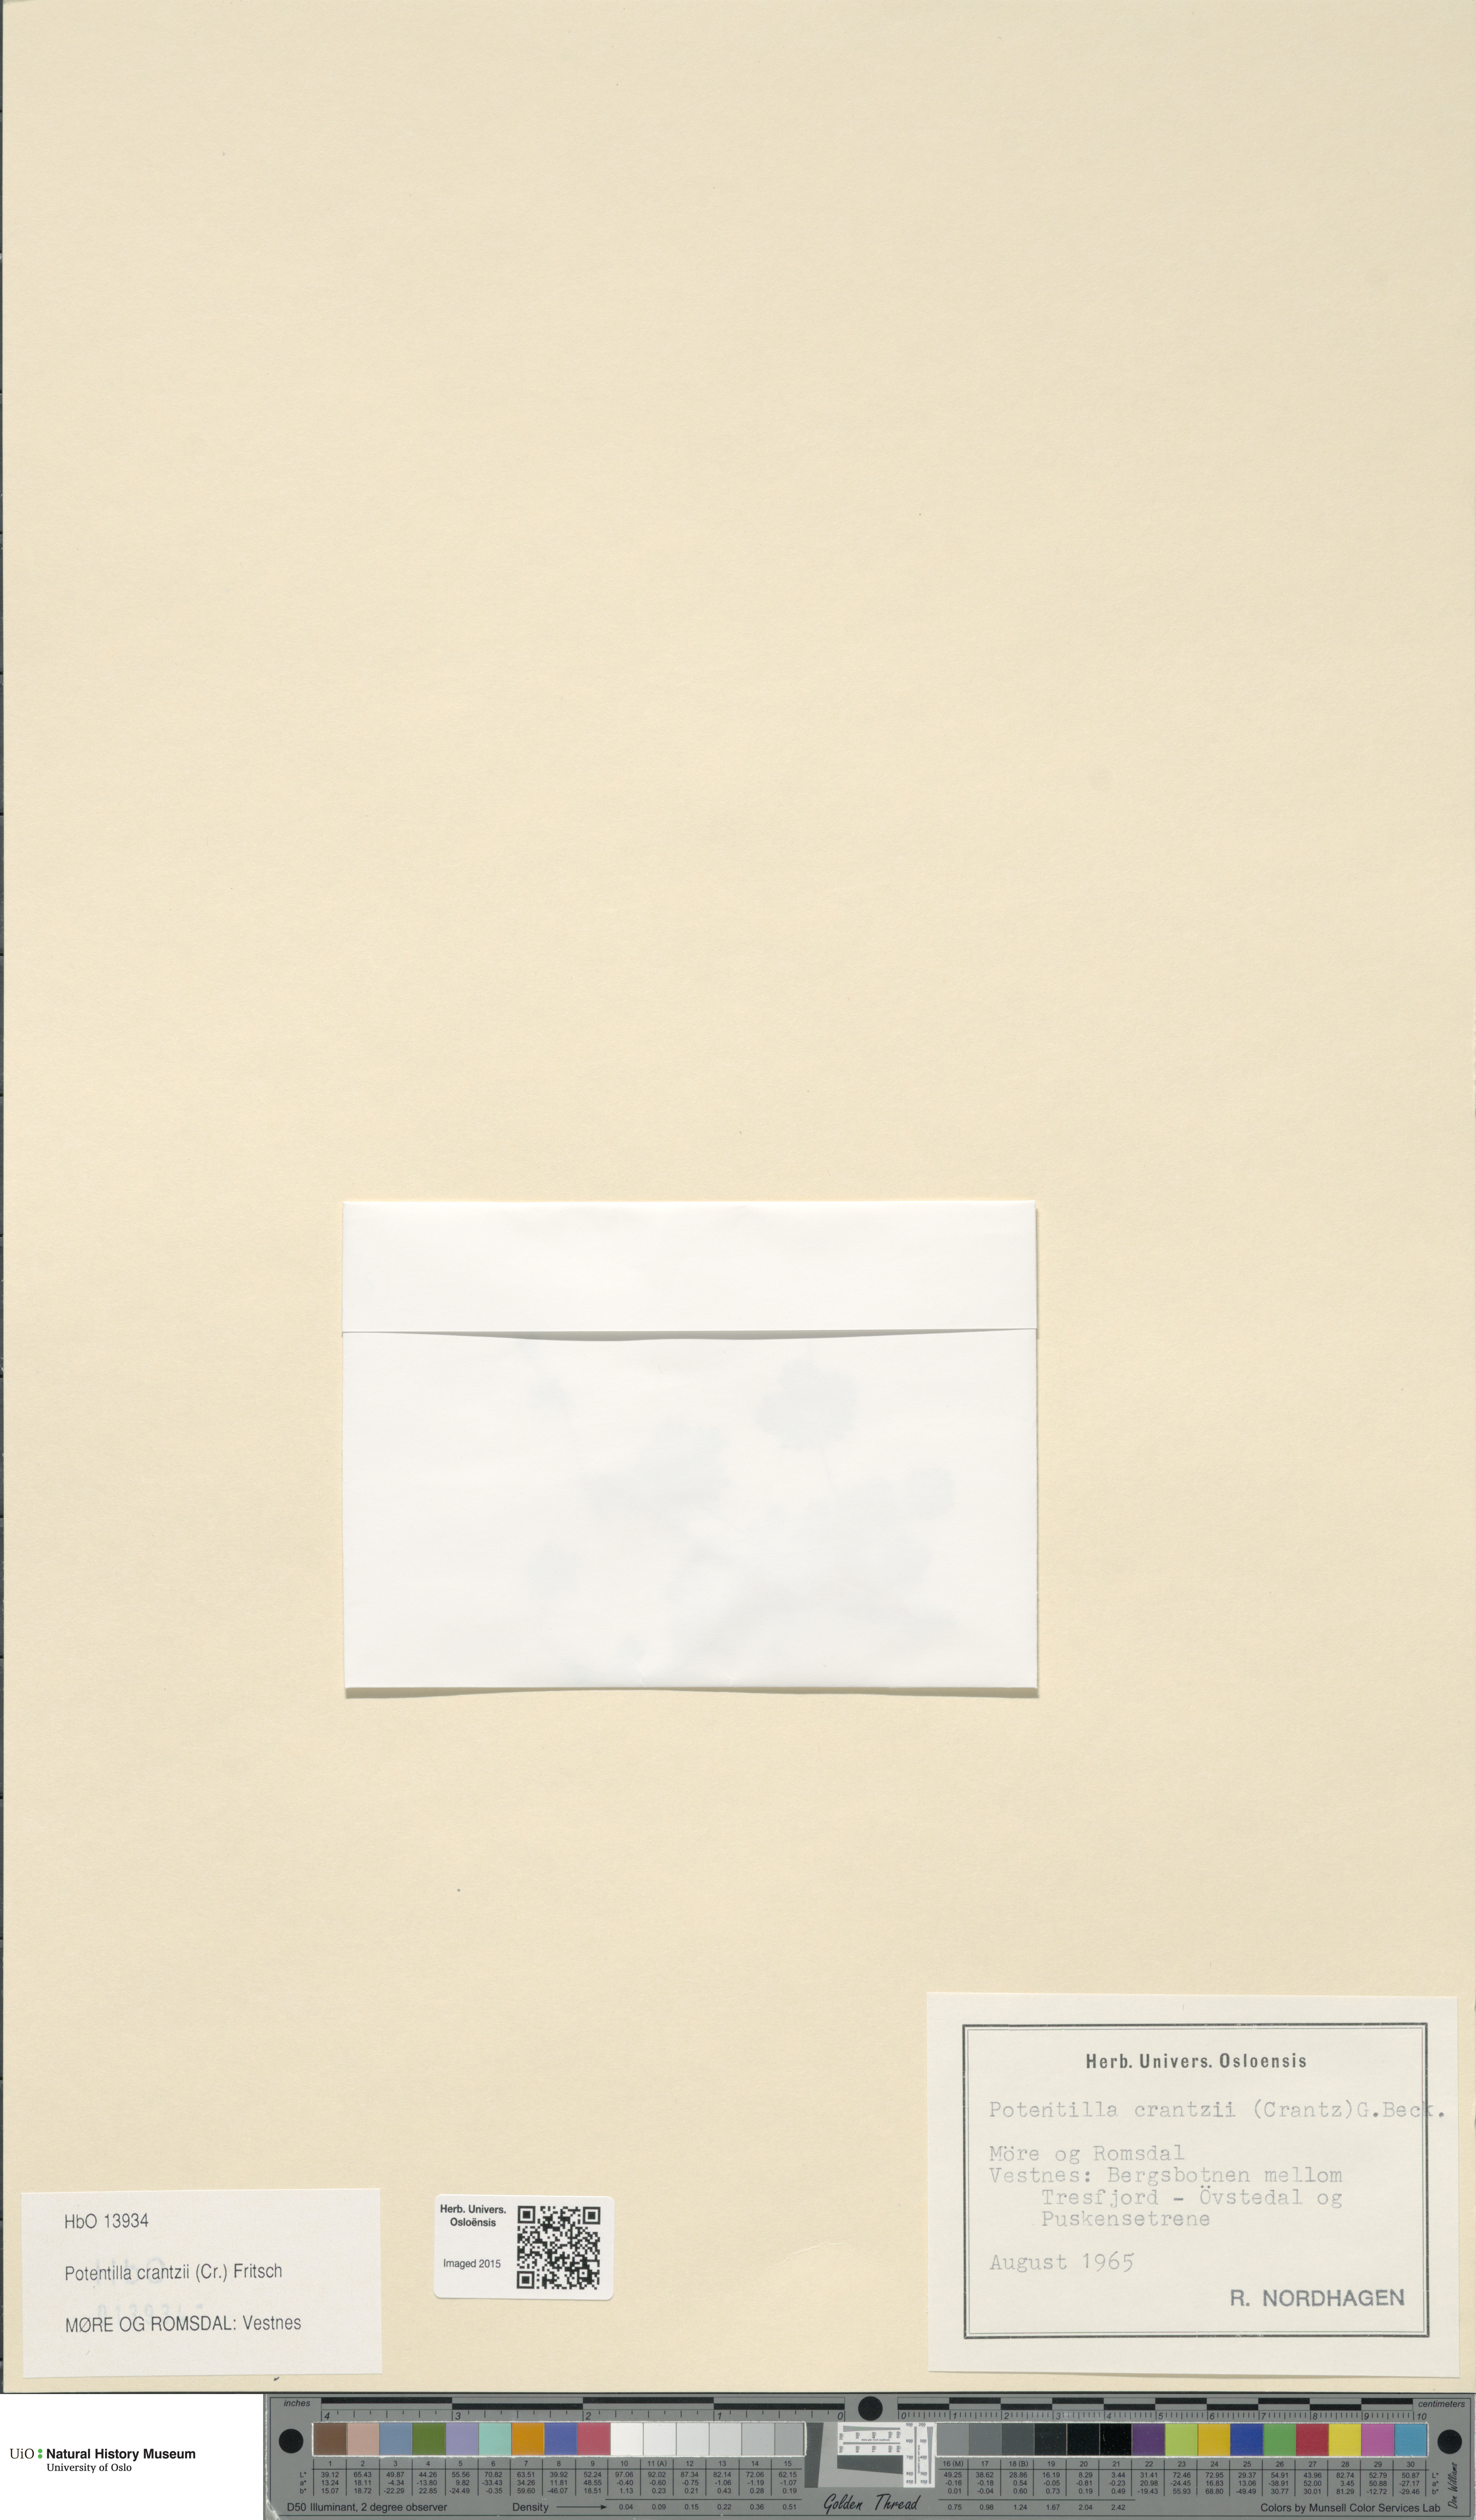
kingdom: Plantae
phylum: Tracheophyta
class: Magnoliopsida
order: Rosales
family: Rosaceae
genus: Potentilla
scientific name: Potentilla crantzii
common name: Alpine cinquefoil
